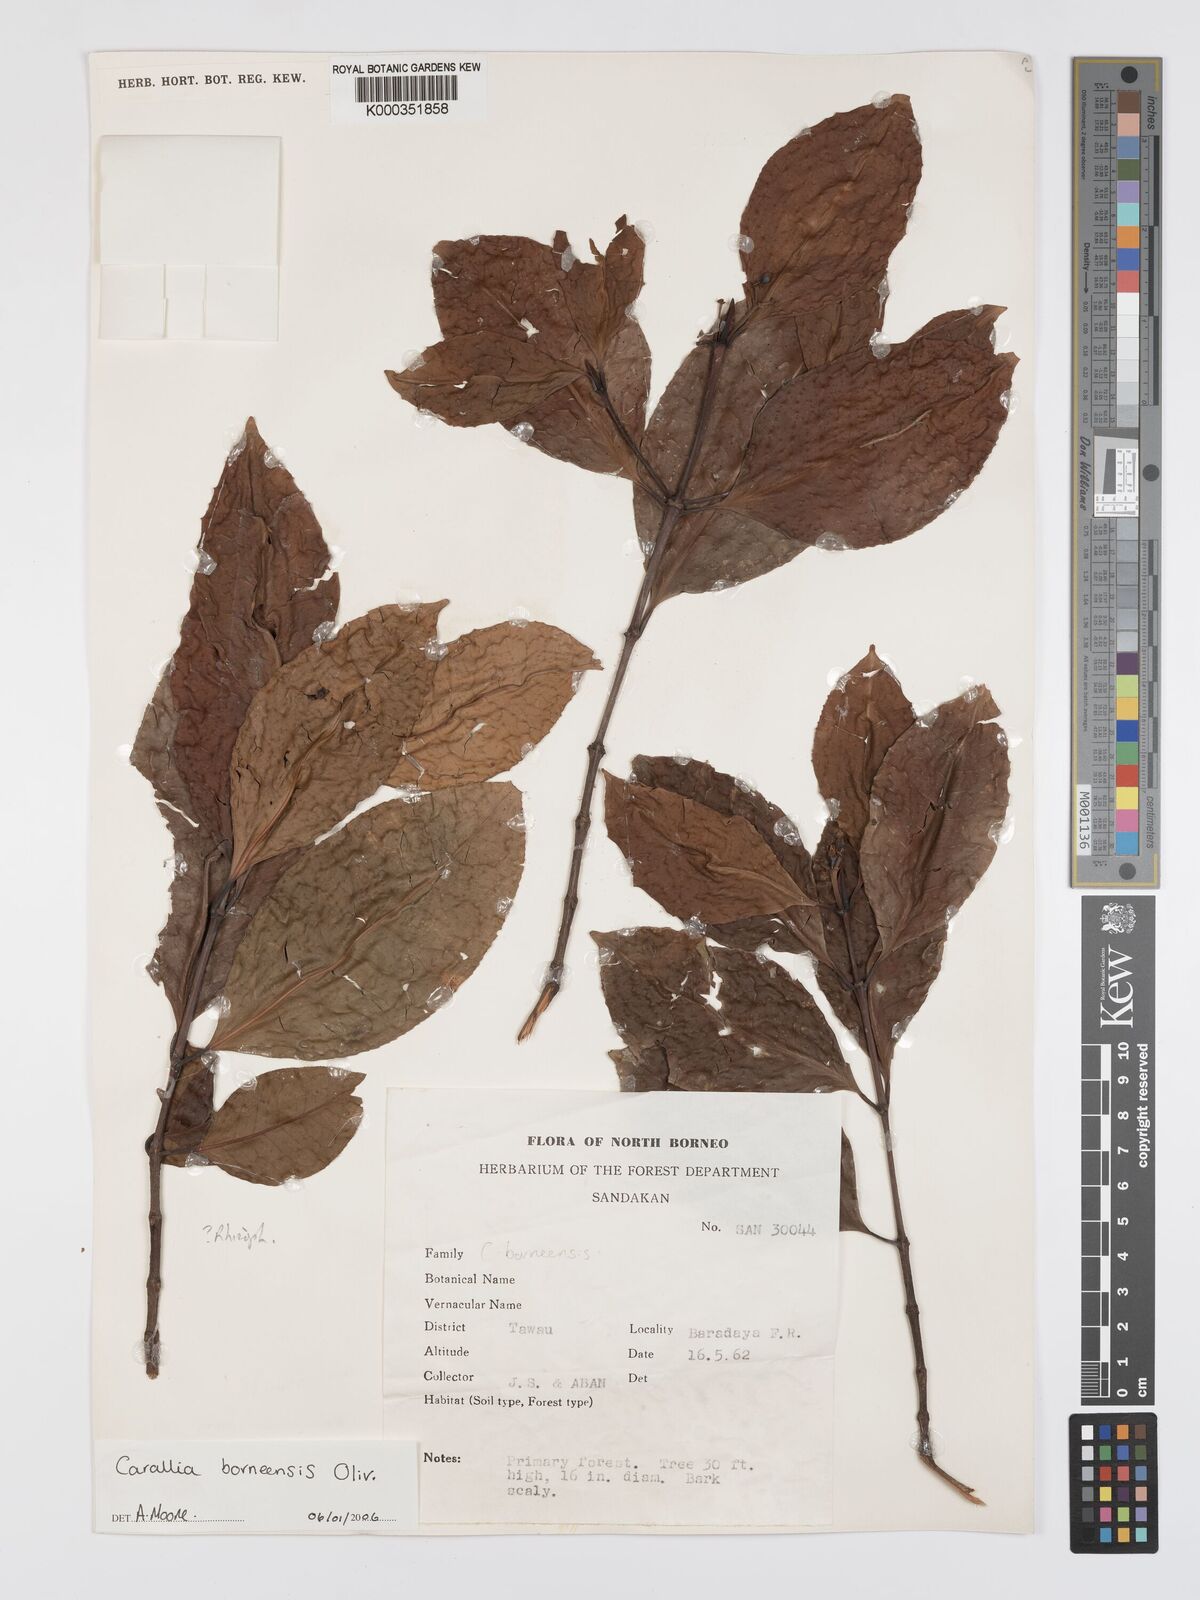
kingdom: Plantae
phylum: Tracheophyta
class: Magnoliopsida
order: Malpighiales
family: Rhizophoraceae
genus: Carallia
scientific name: Carallia borneensis
